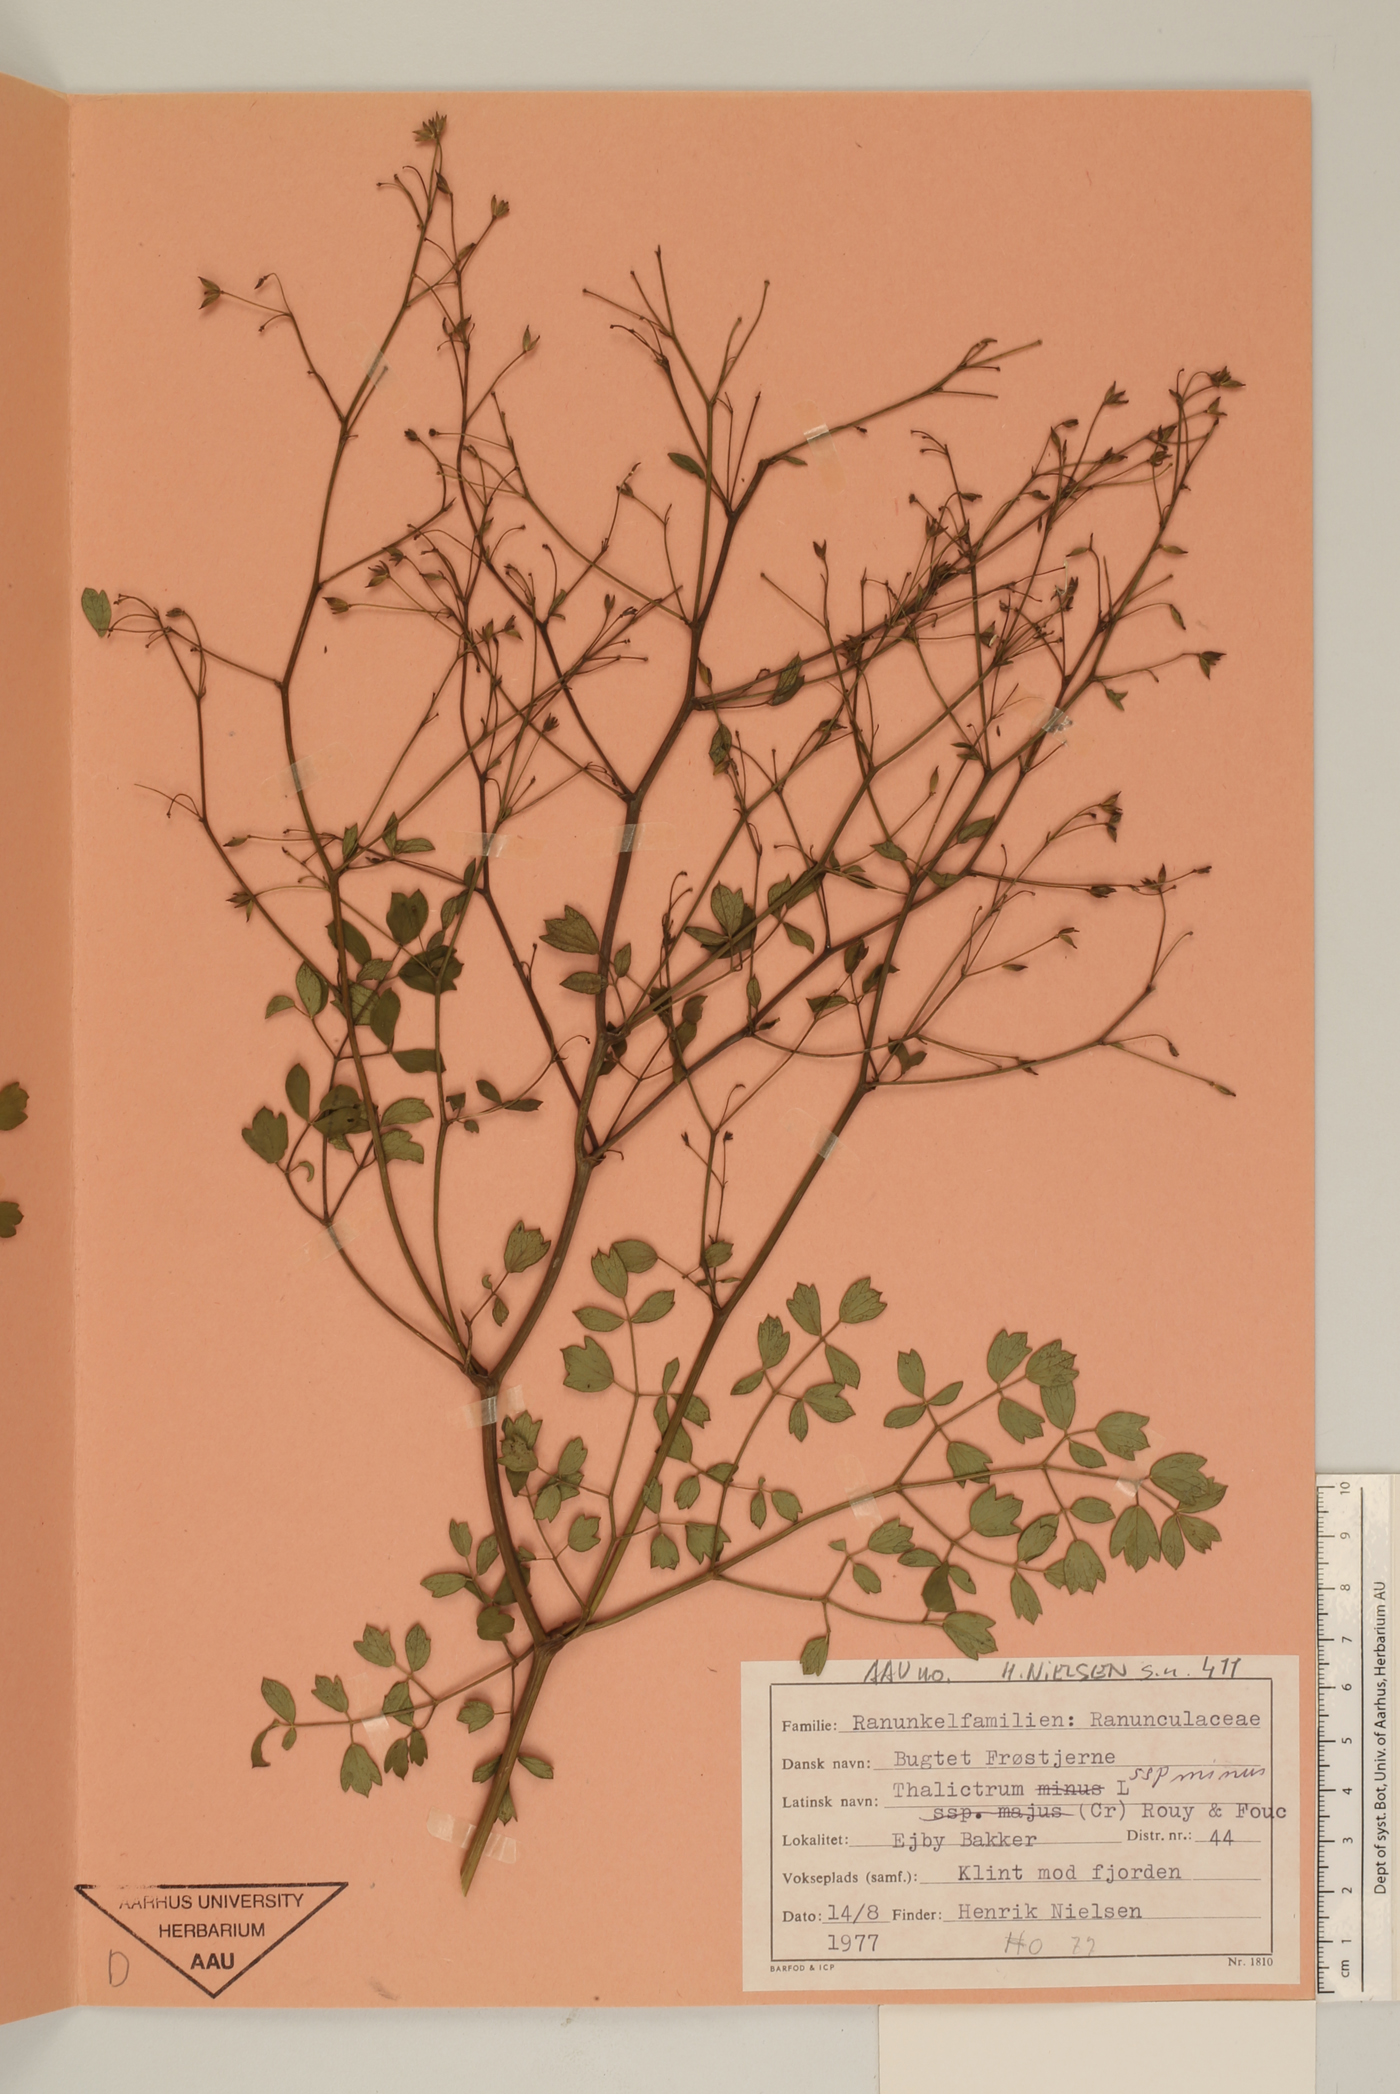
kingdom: Plantae
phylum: Tracheophyta
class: Magnoliopsida
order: Ranunculales
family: Ranunculaceae
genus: Thalictrum
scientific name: Thalictrum minus
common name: Lesser meadow-rue
